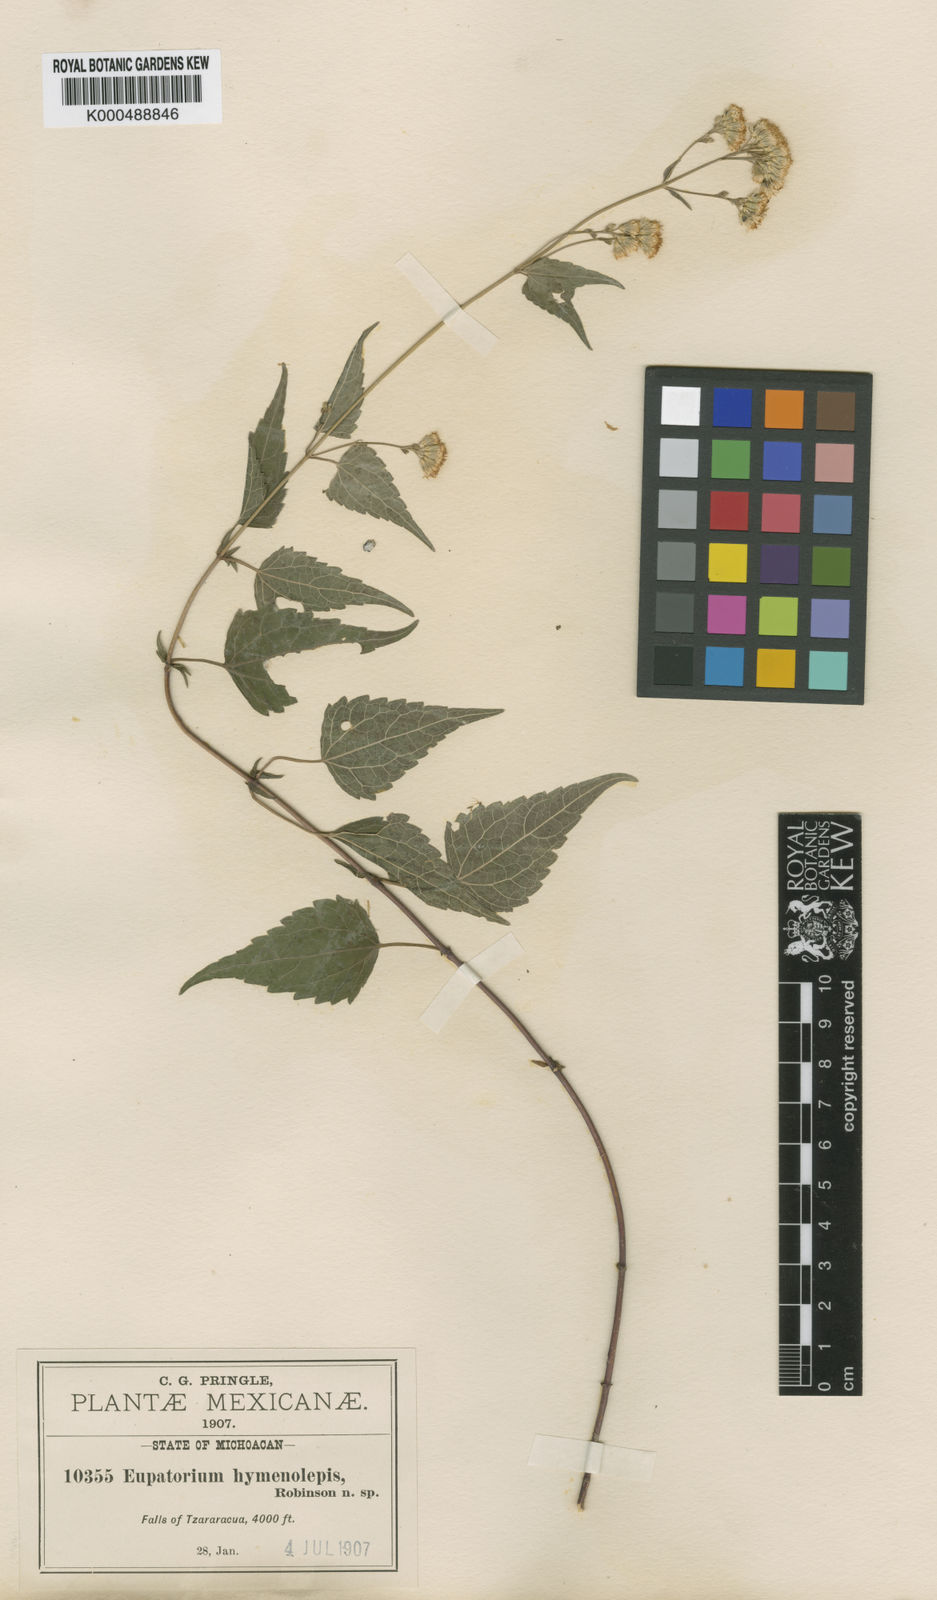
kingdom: Plantae
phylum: Tracheophyta
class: Magnoliopsida
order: Asterales
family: Asteraceae
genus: Fleischmannia
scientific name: Fleischmannia pycnocephala
